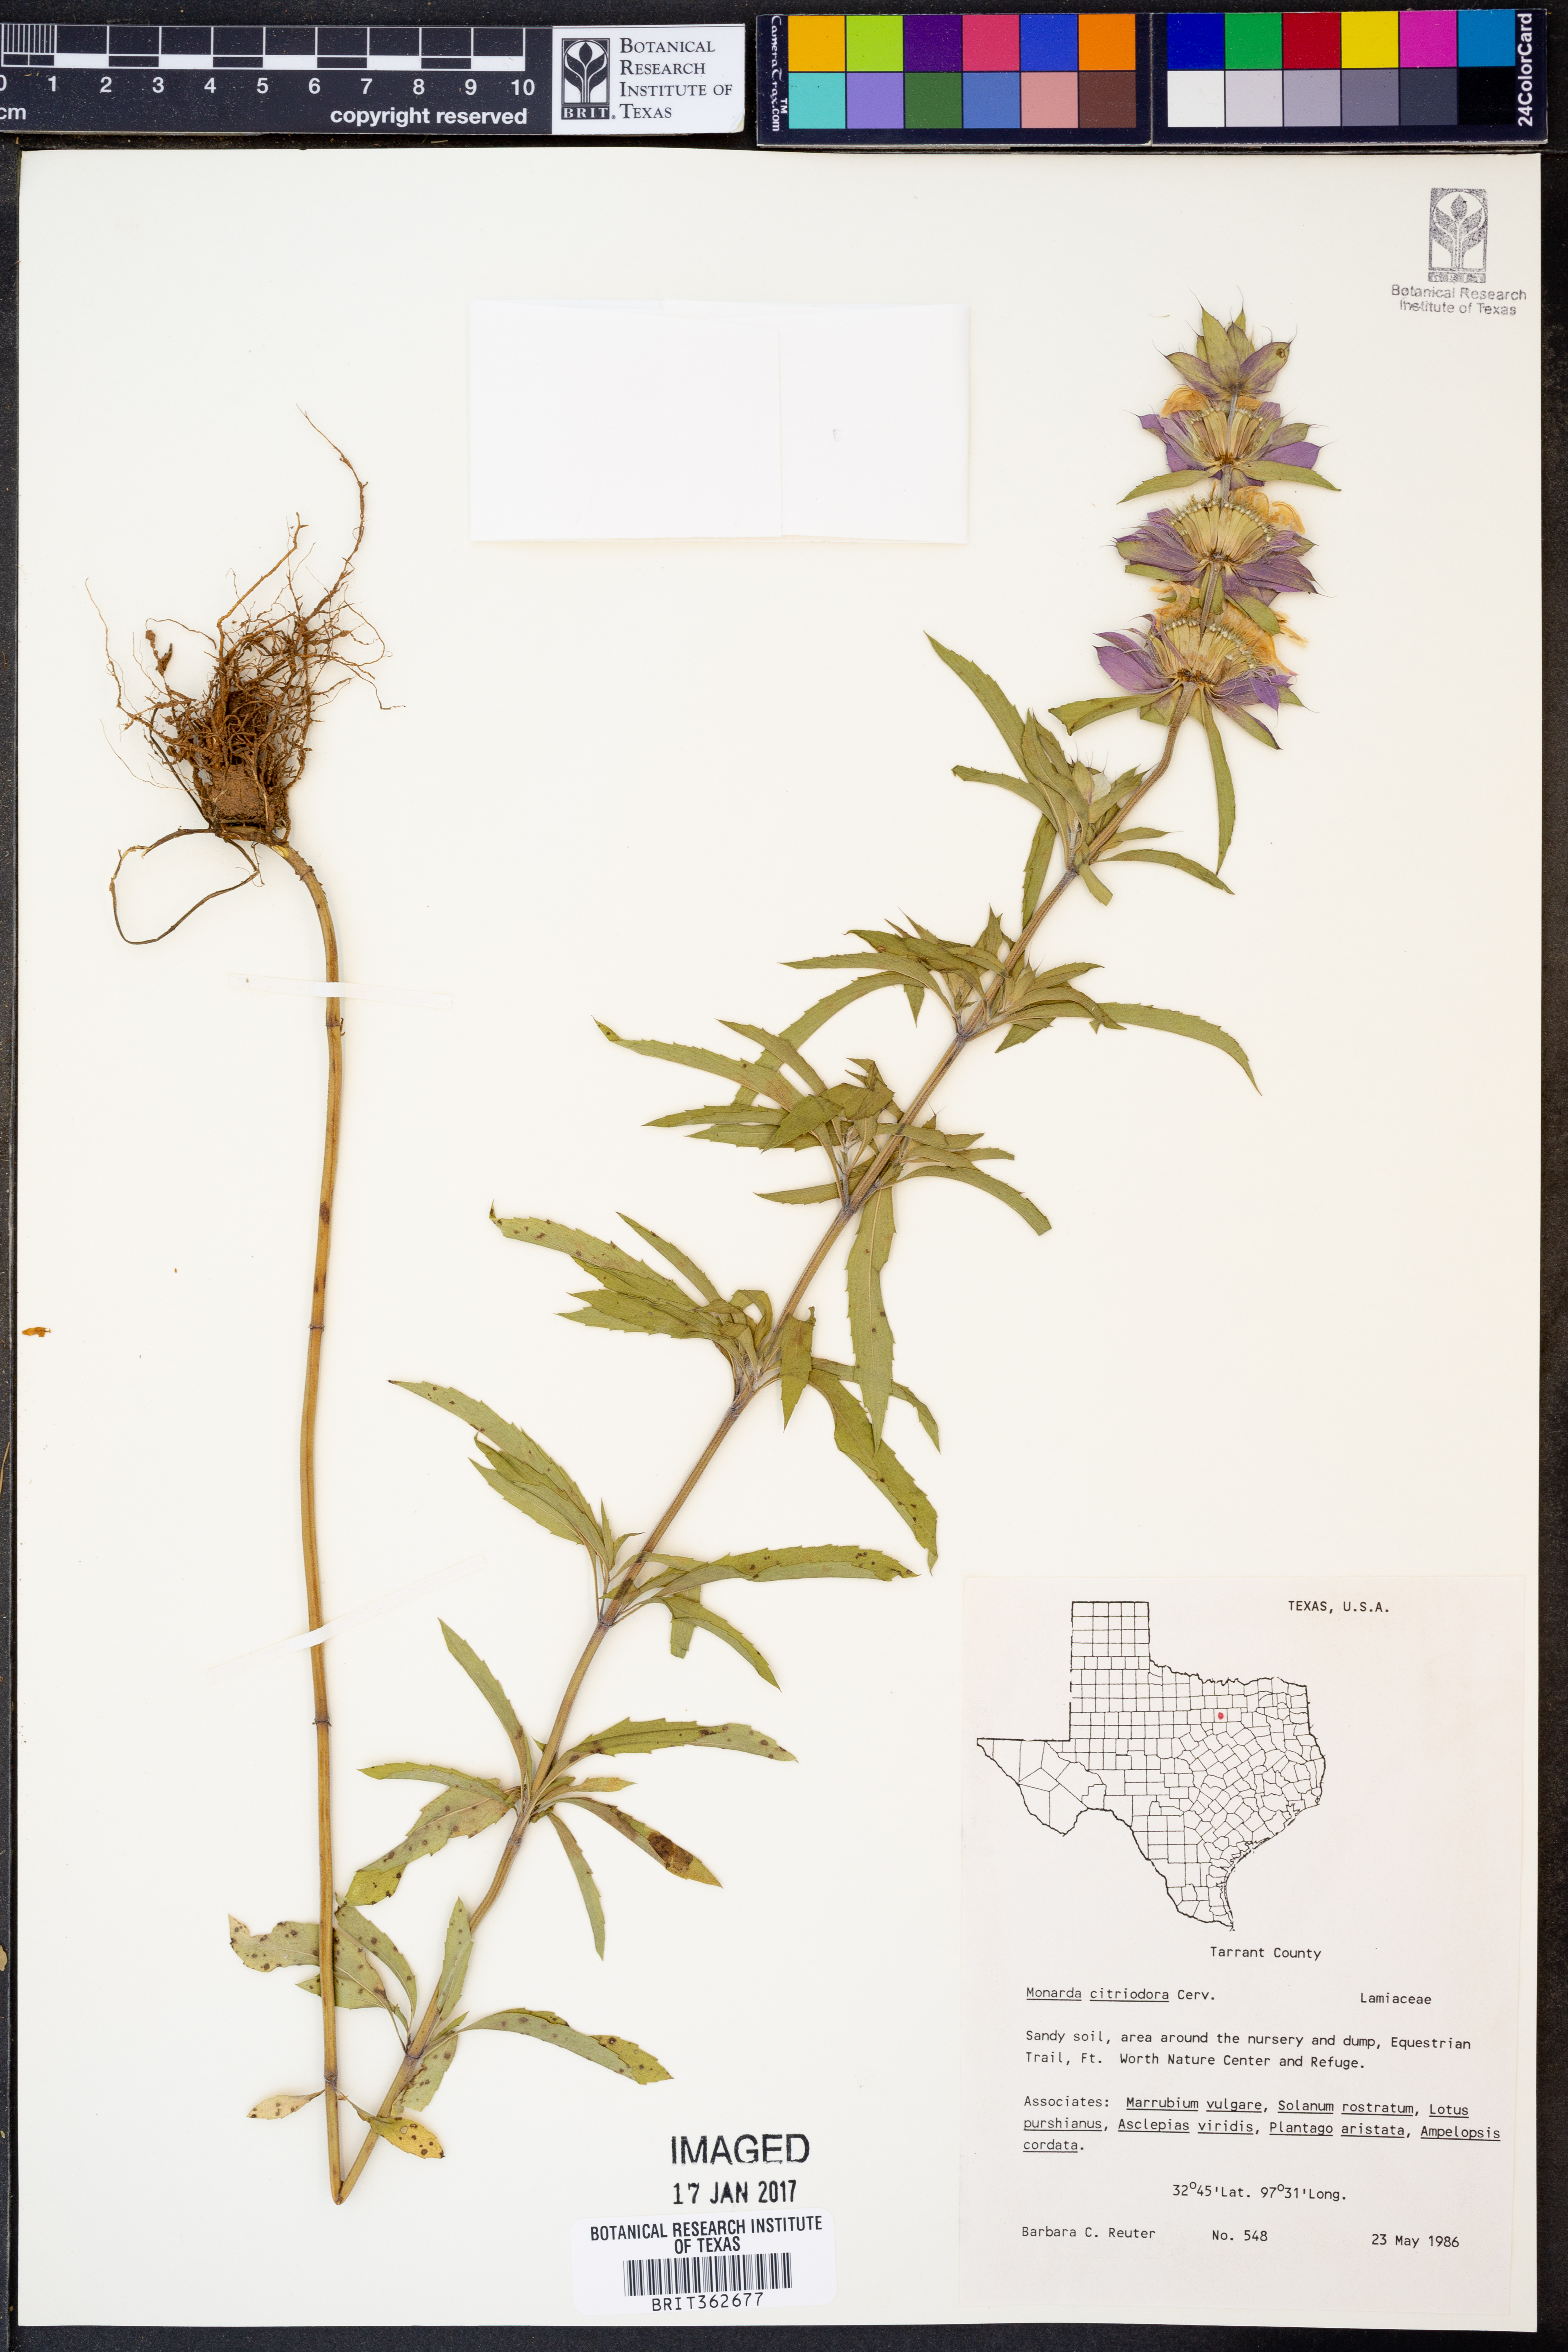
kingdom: Plantae
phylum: Tracheophyta
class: Magnoliopsida
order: Lamiales
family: Lamiaceae
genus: Monarda
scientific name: Monarda citriodora
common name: Lemon beebalm
